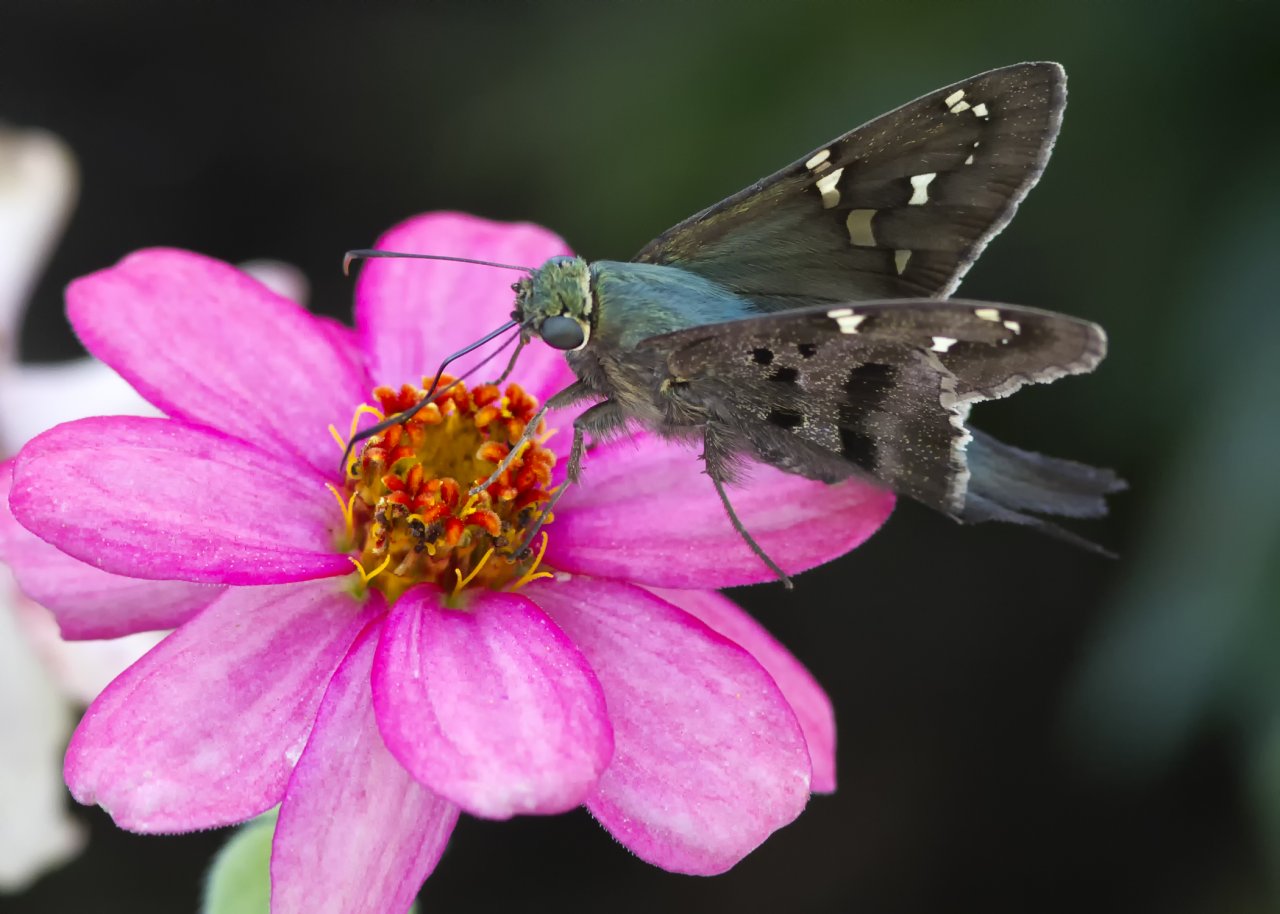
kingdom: Animalia
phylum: Arthropoda
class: Insecta
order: Lepidoptera
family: Hesperiidae
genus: Urbanus
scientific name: Urbanus proteus
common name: Long-tailed Skipper
